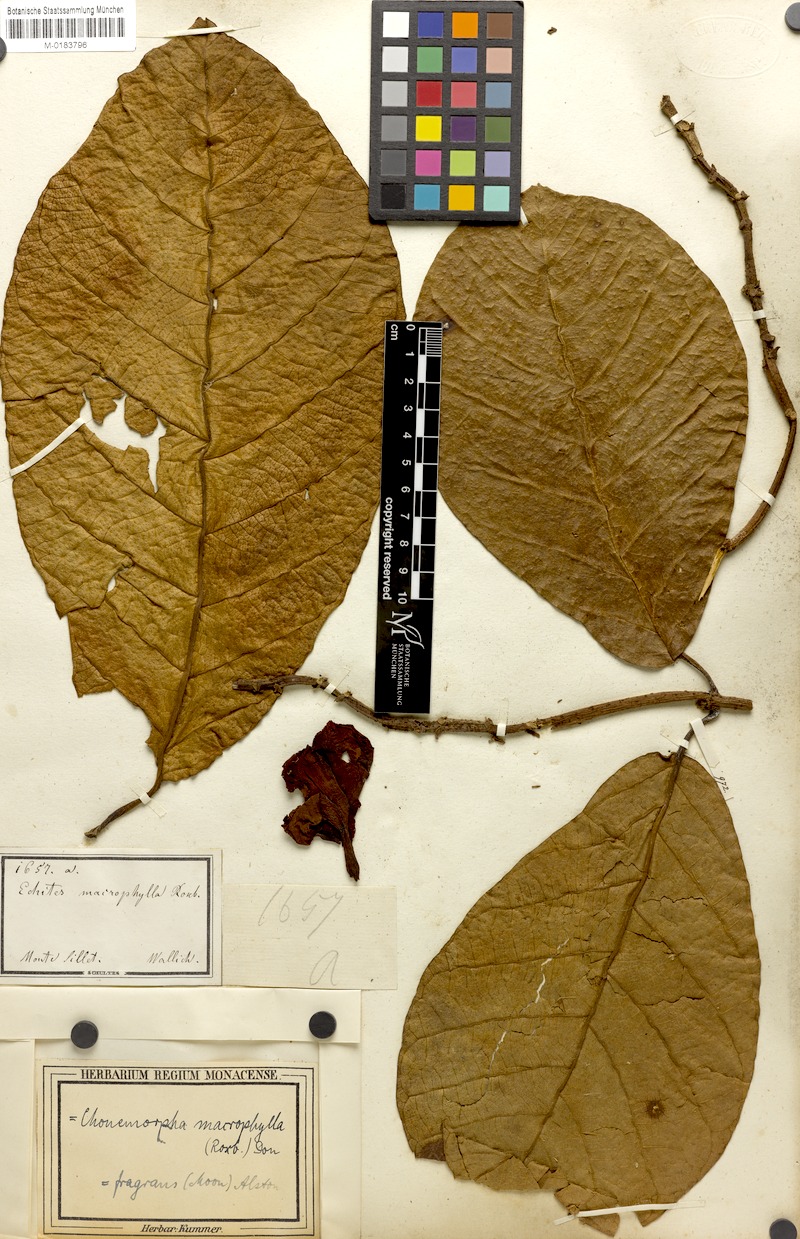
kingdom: Plantae
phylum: Tracheophyta
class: Magnoliopsida
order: Gentianales
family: Apocynaceae
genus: Chonemorpha
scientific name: Chonemorpha fragrans
